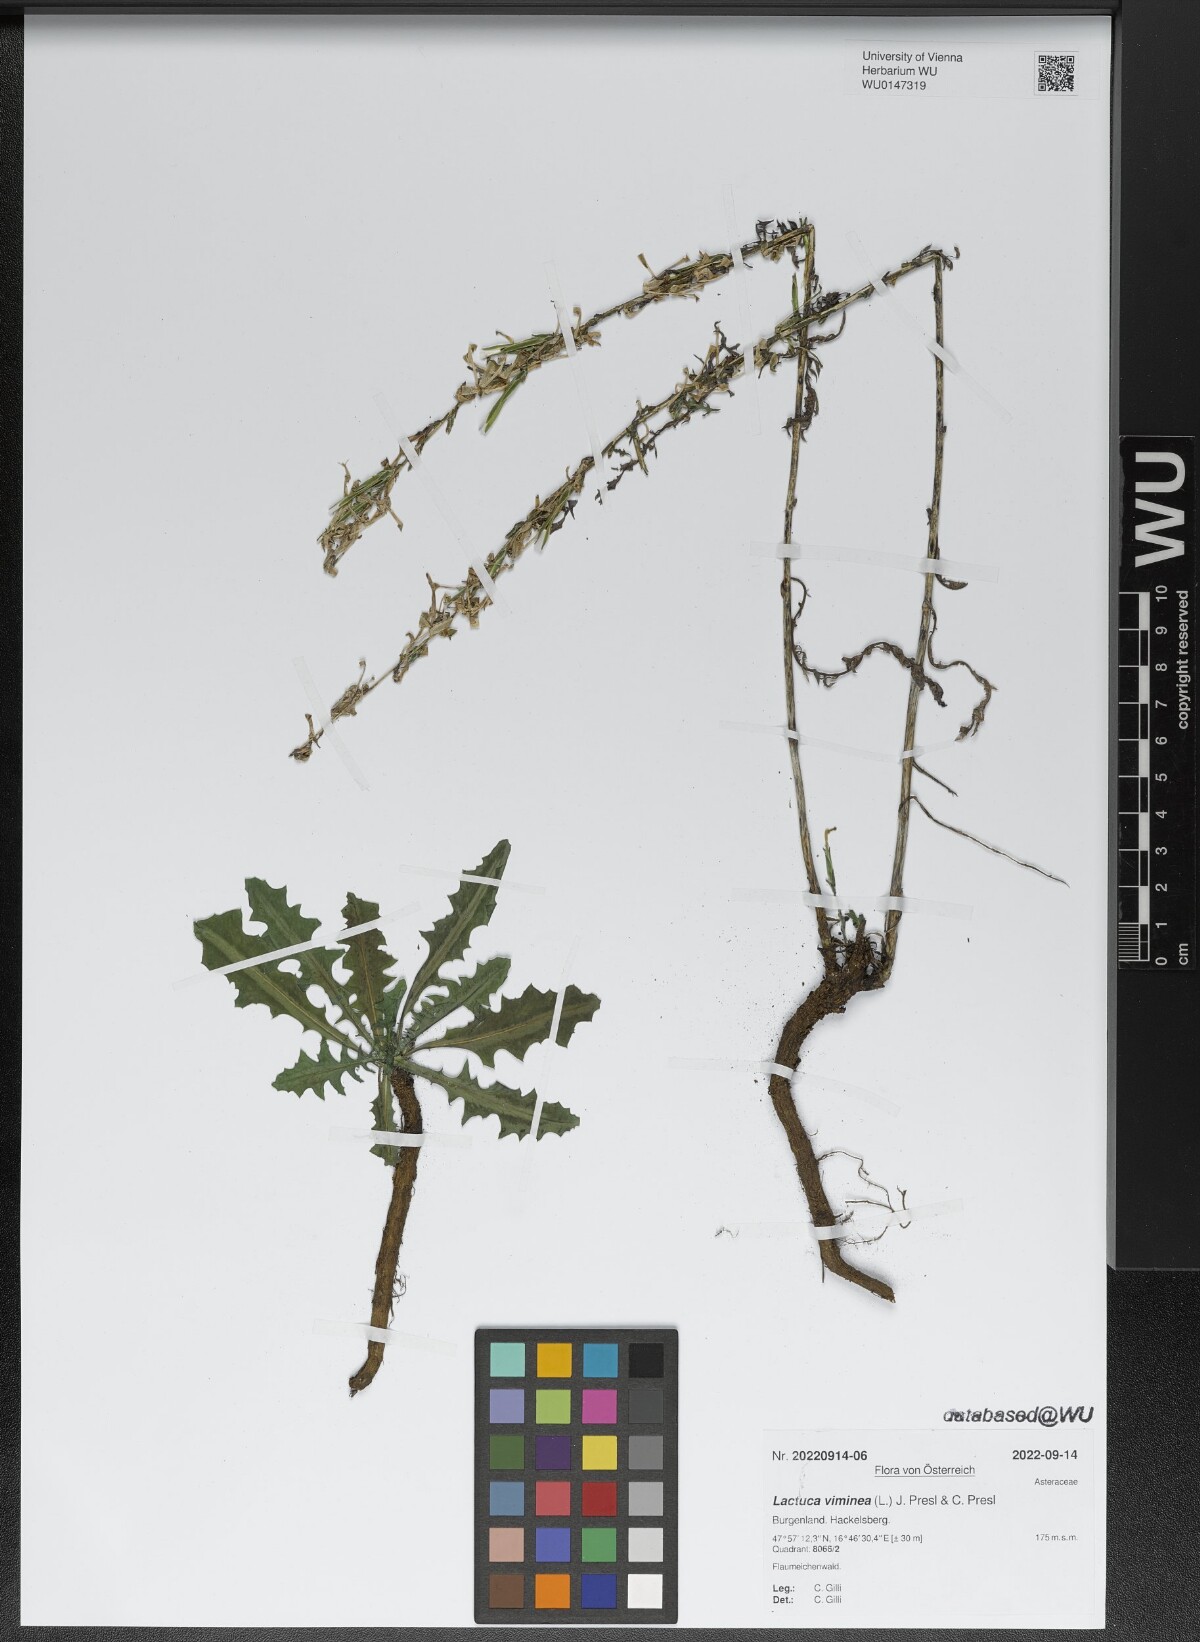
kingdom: Plantae
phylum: Tracheophyta
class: Magnoliopsida
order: Asterales
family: Asteraceae
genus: Lactuca
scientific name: Lactuca viminea
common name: Pliant lettuce
